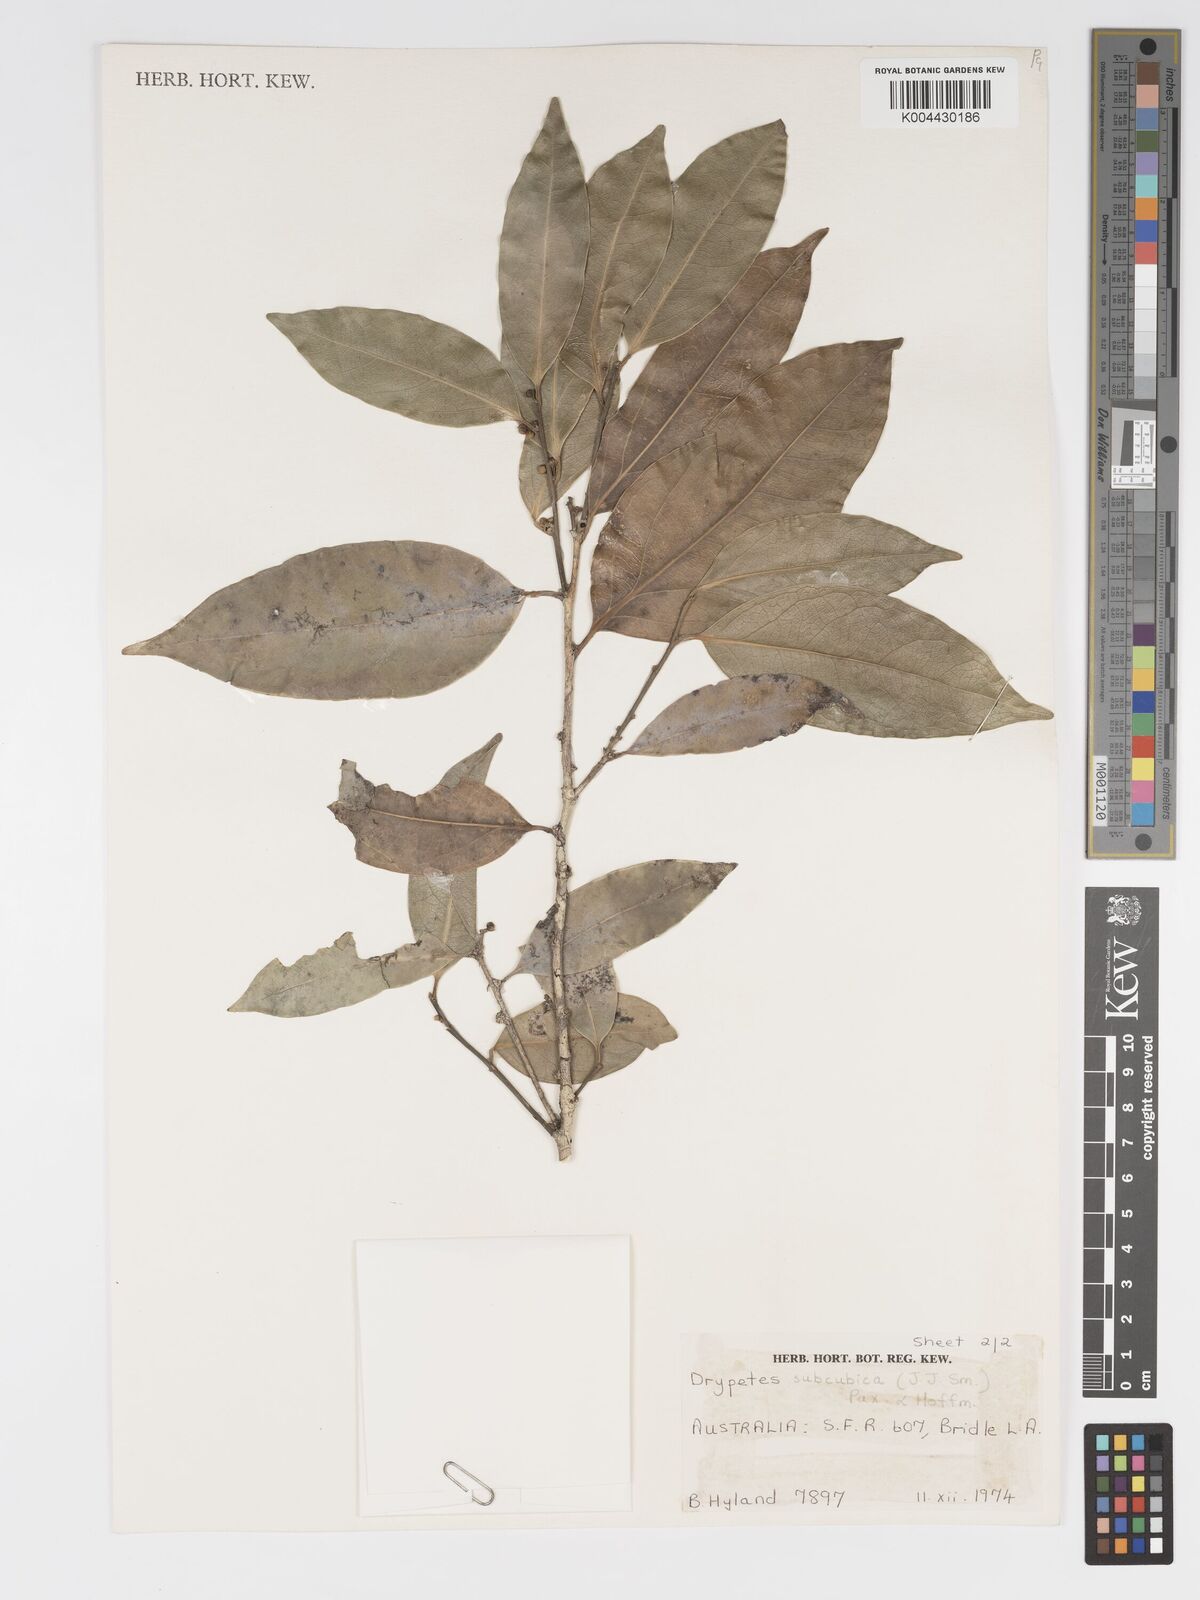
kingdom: Plantae
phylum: Tracheophyta
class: Magnoliopsida
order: Malpighiales
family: Putranjivaceae
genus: Drypetes
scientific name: Drypetes subcubica
